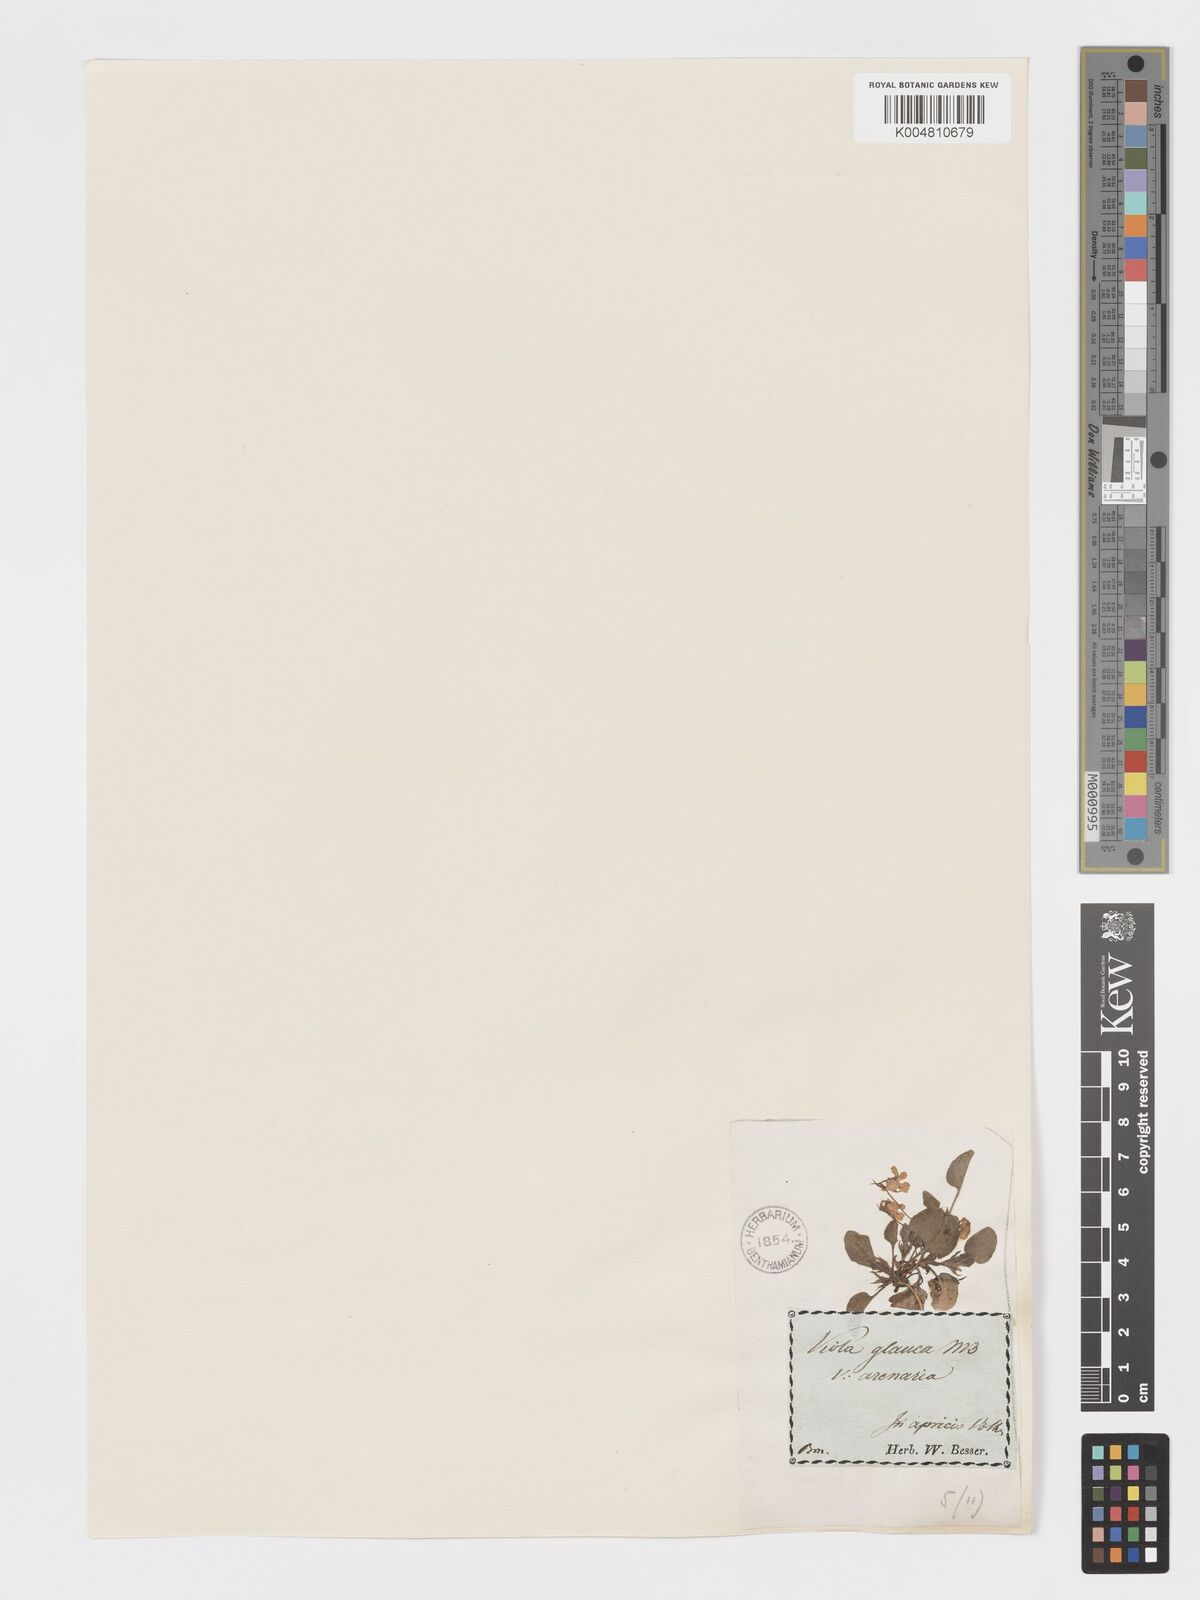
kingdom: Plantae
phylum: Tracheophyta
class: Magnoliopsida
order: Malpighiales
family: Violaceae
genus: Viola
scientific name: Viola rupestris
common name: Teesdale violet
